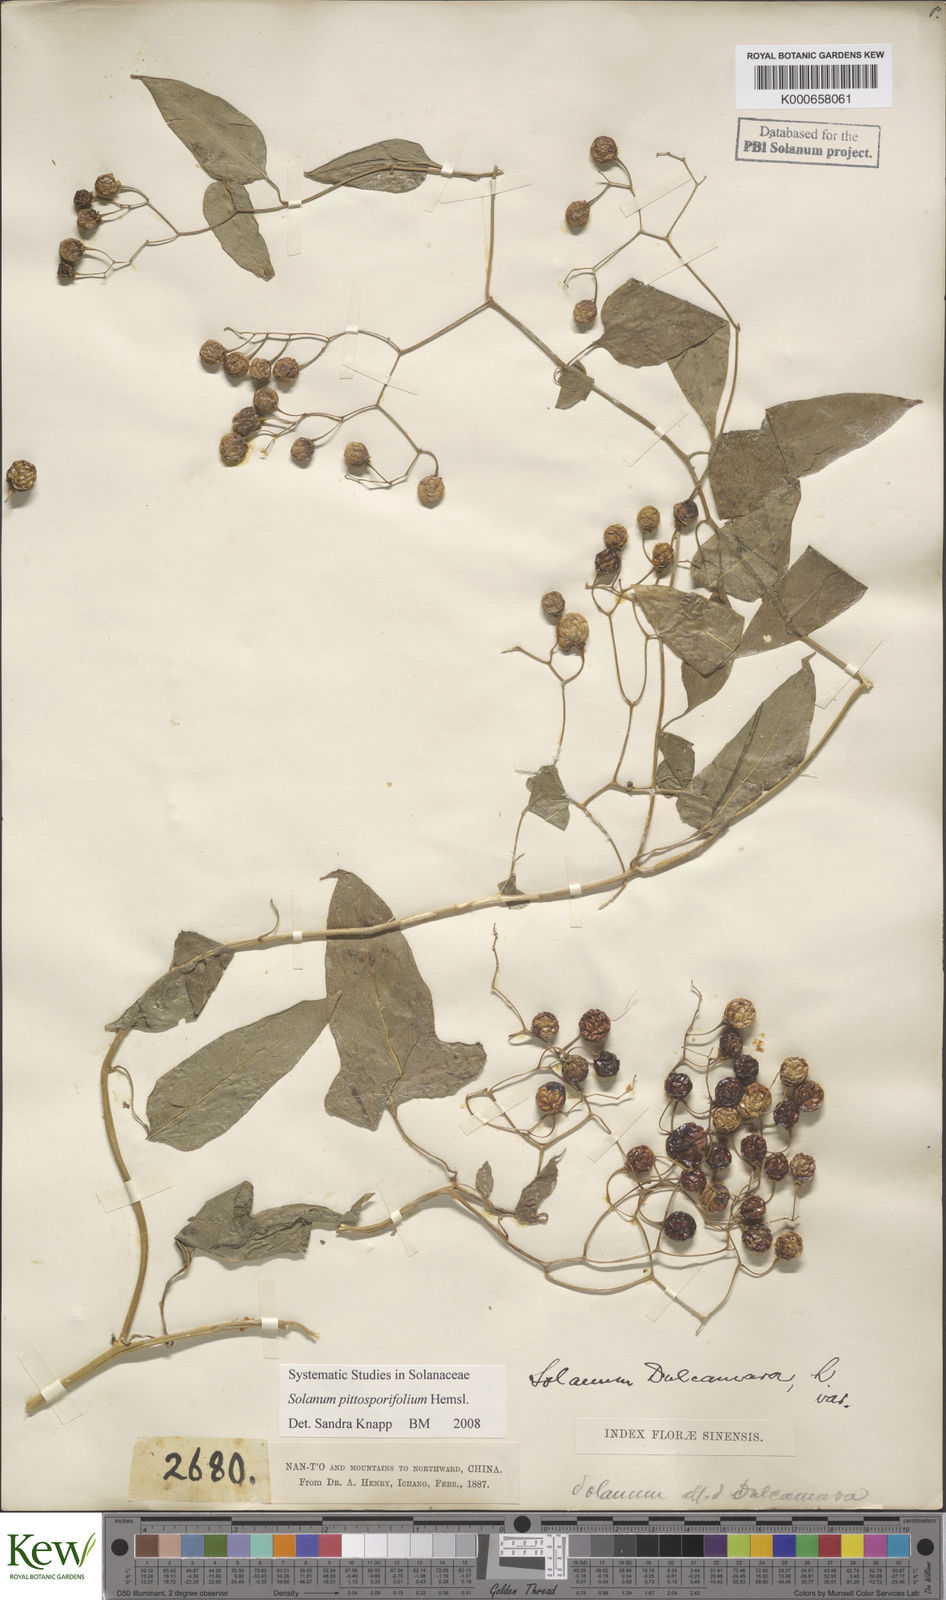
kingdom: Plantae
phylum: Tracheophyta
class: Magnoliopsida
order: Solanales
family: Solanaceae
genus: Solanum
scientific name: Solanum pittosporifolium
